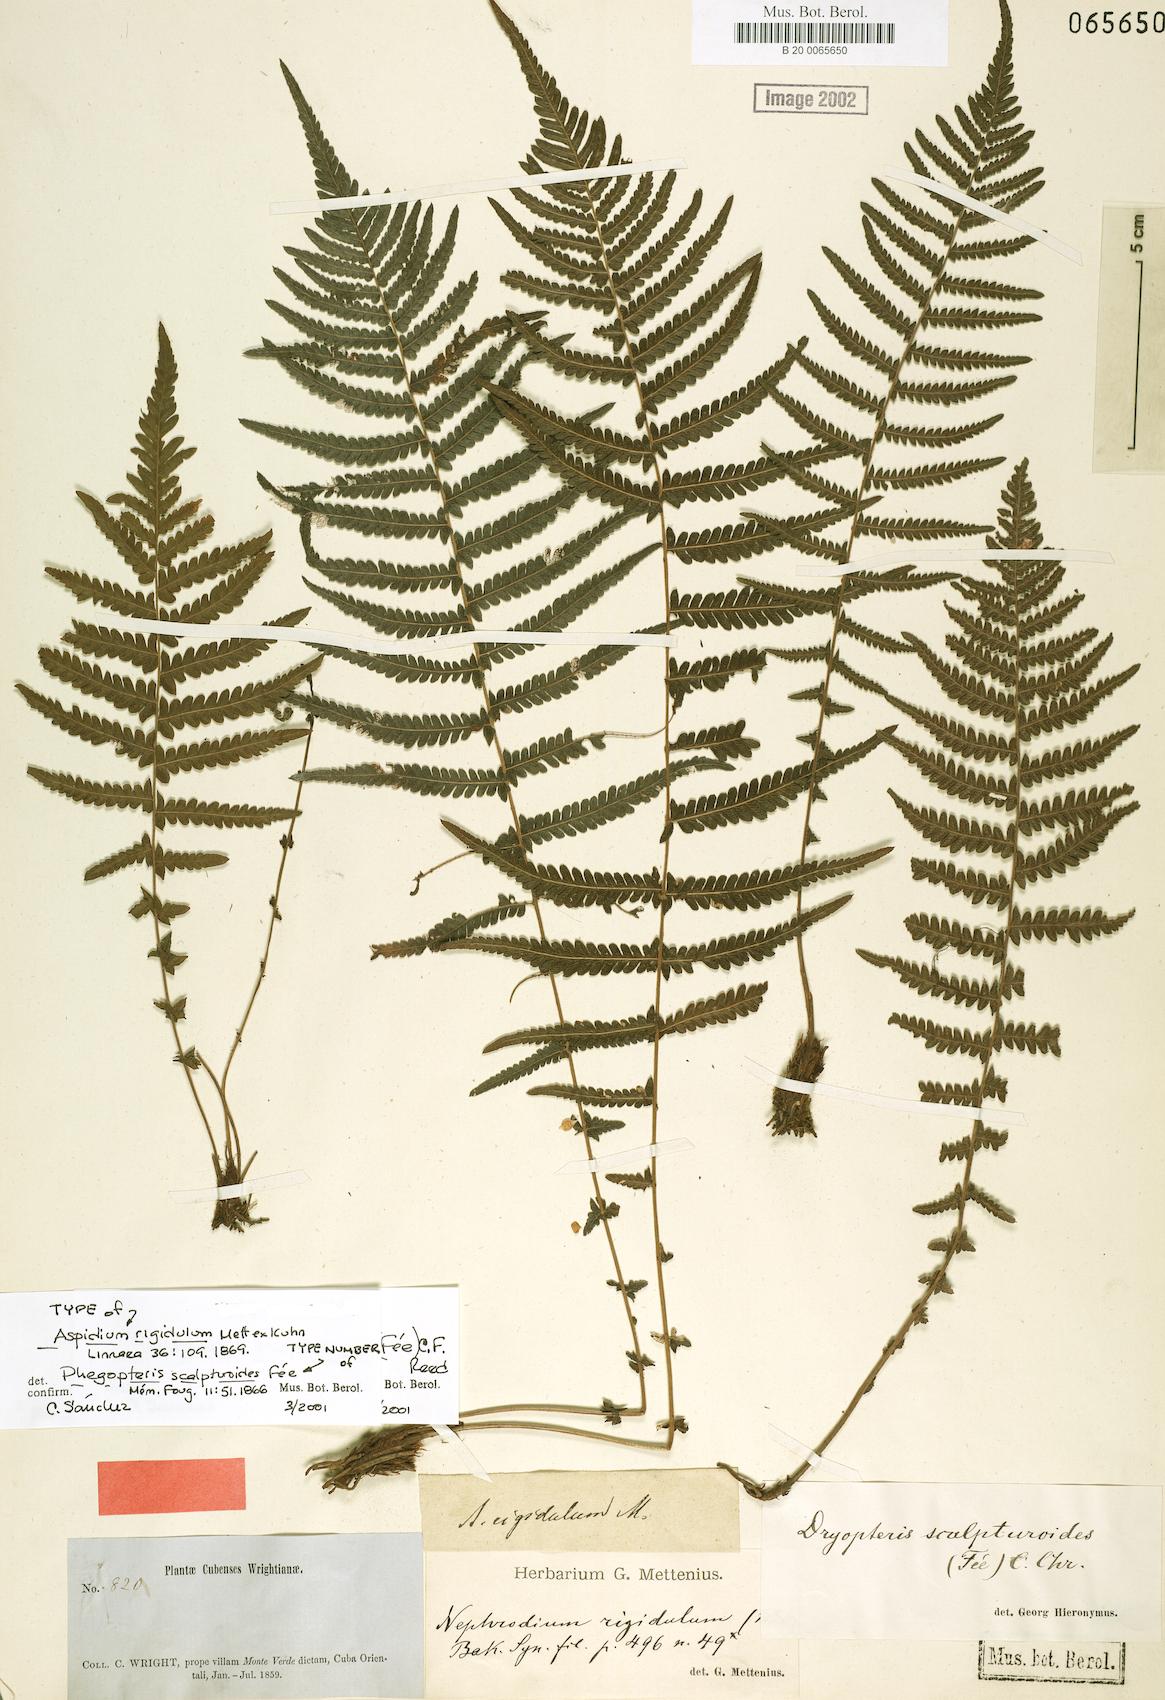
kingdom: Plantae
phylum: Tracheophyta
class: Polypodiopsida
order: Polypodiales
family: Thelypteridaceae
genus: Amauropelta
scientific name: Amauropelta scalpturoides
